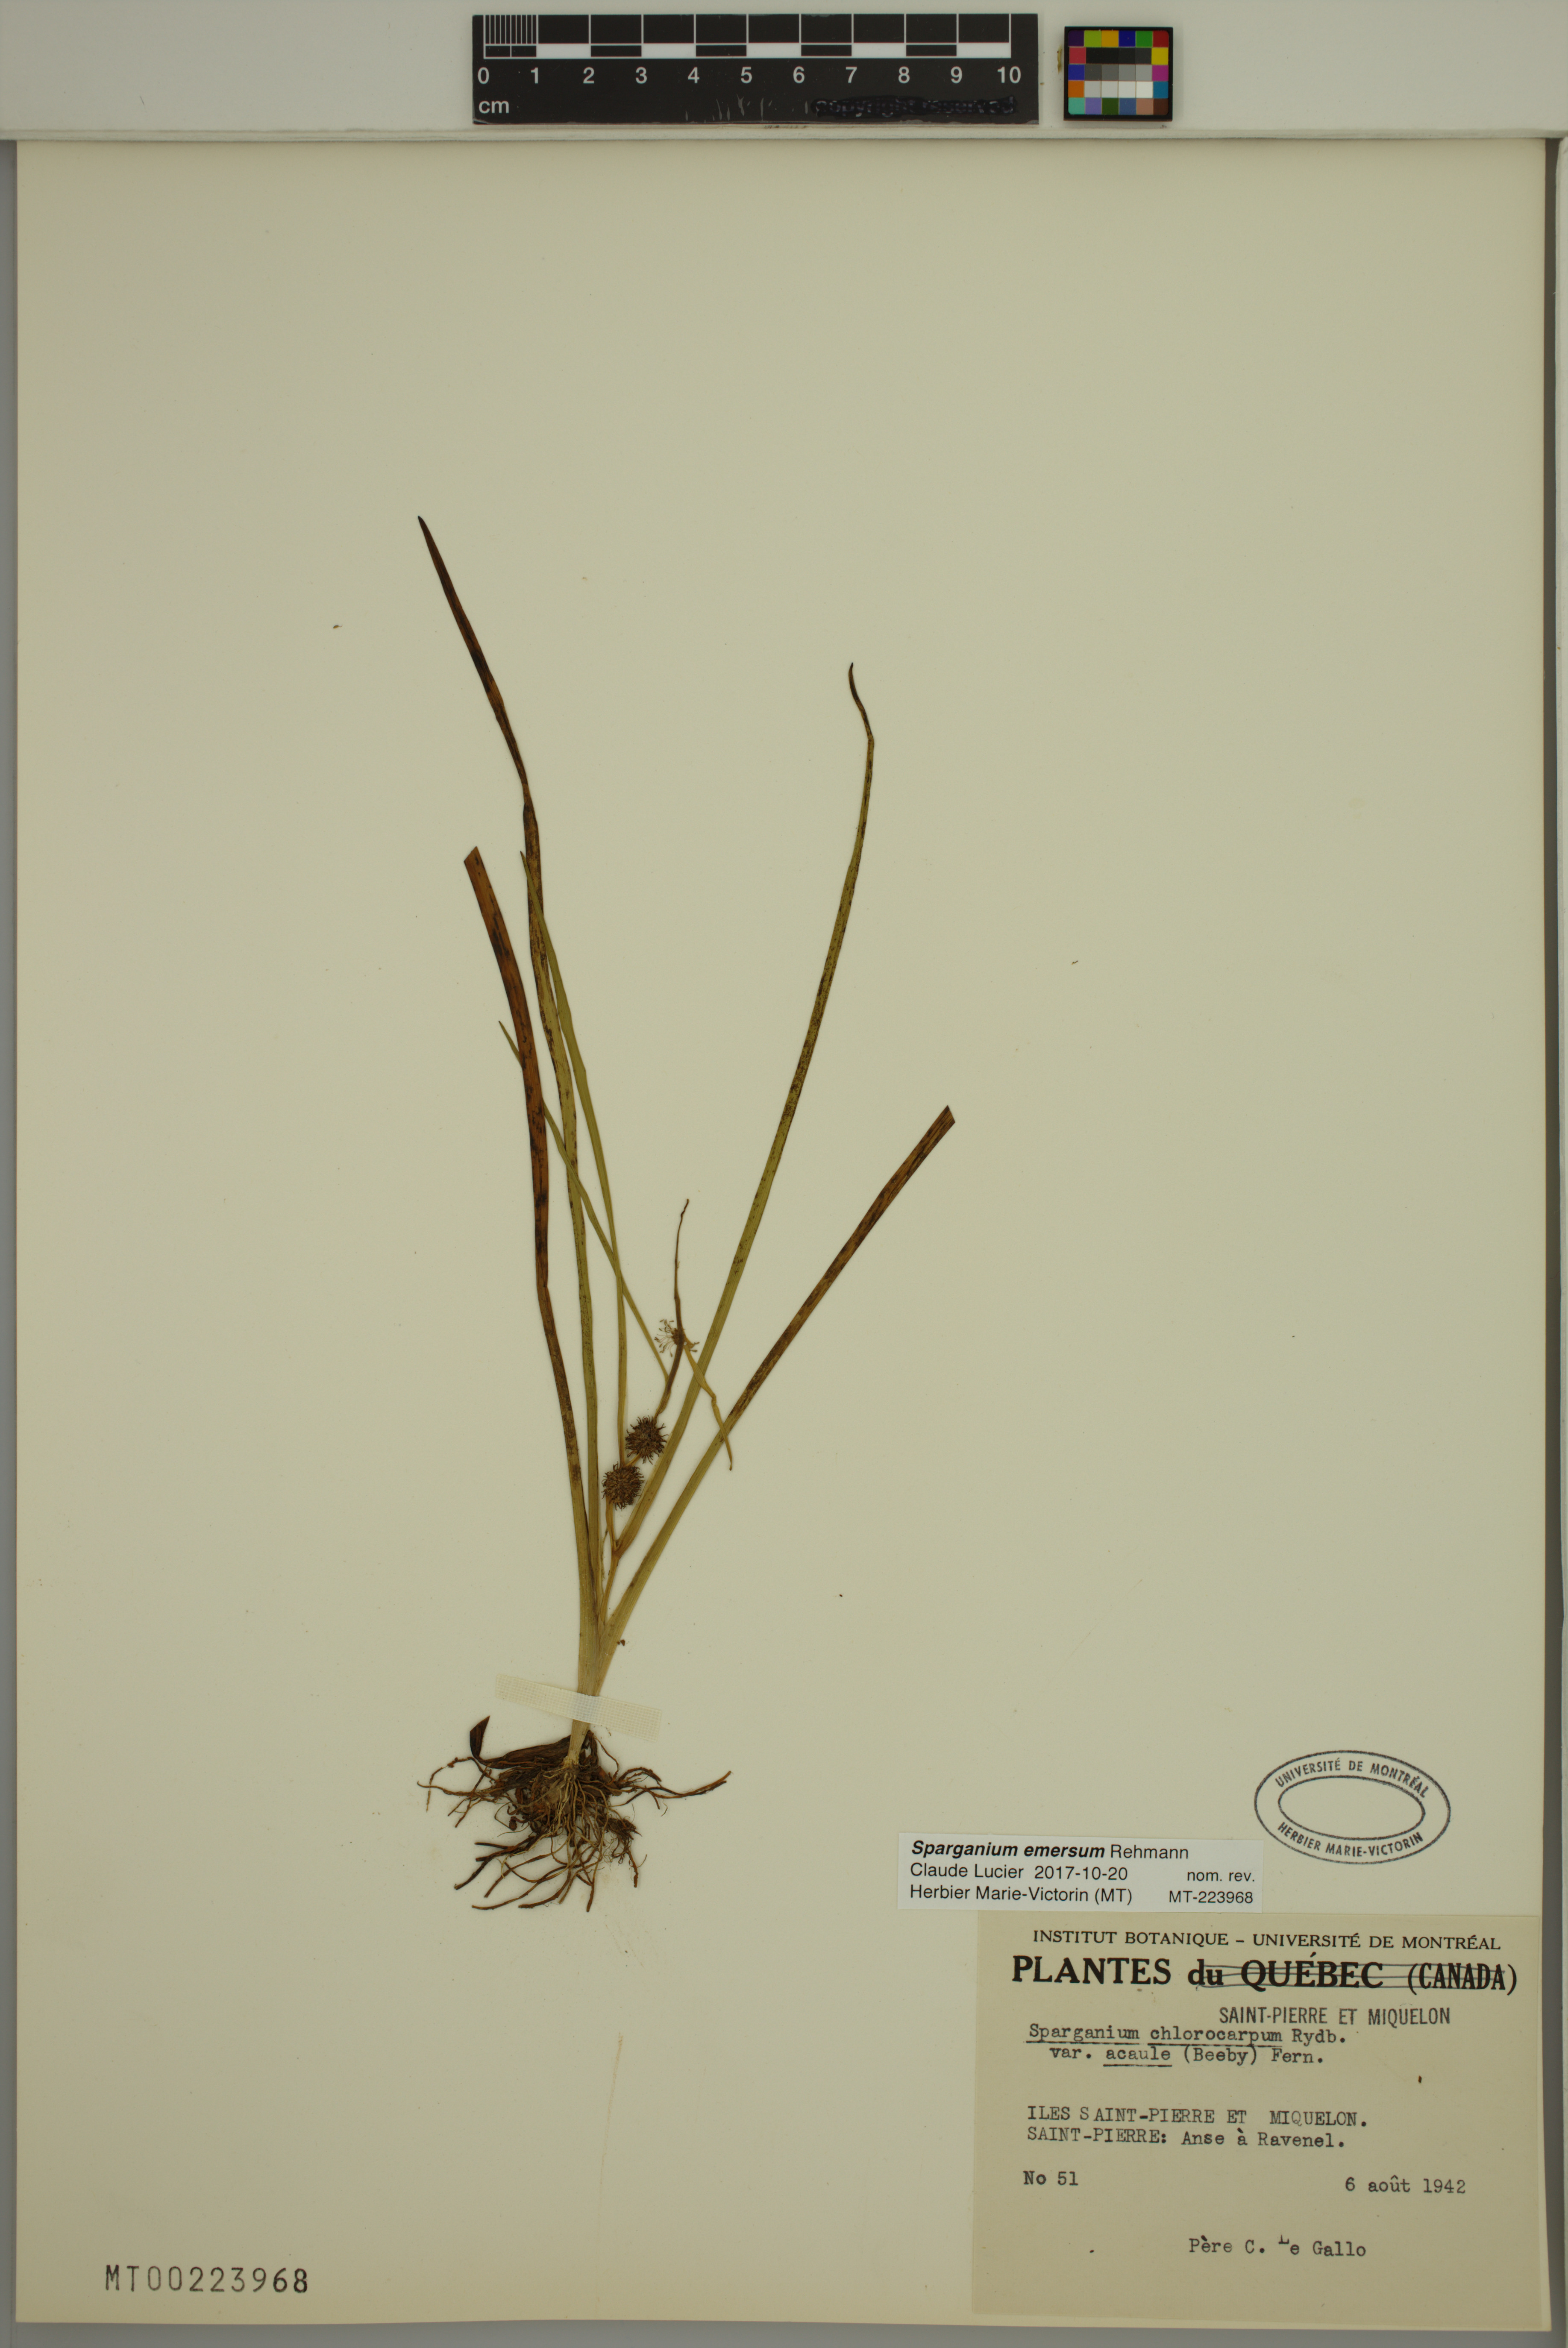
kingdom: Plantae
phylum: Tracheophyta
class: Liliopsida
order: Poales
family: Typhaceae
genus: Sparganium
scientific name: Sparganium emersum
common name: Unbranched bur-reed
